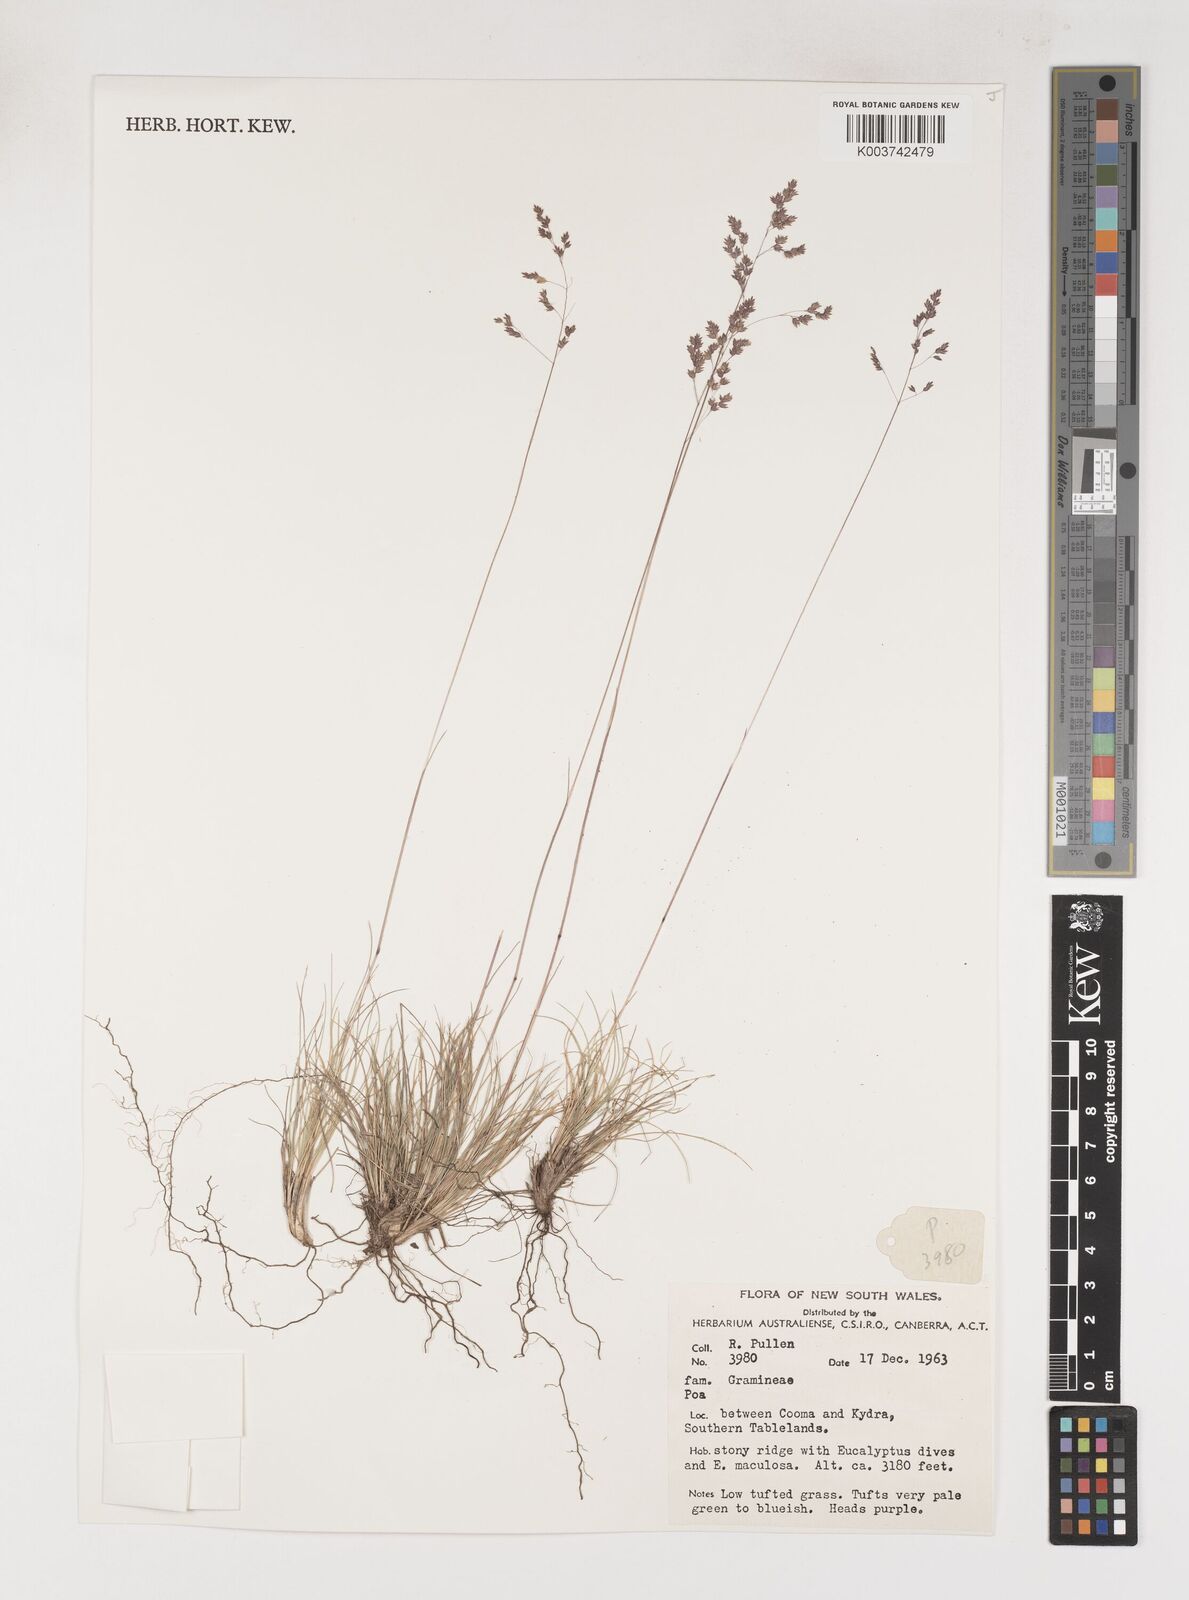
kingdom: Plantae
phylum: Tracheophyta
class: Liliopsida
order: Poales
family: Poaceae
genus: Poa
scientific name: Poa
